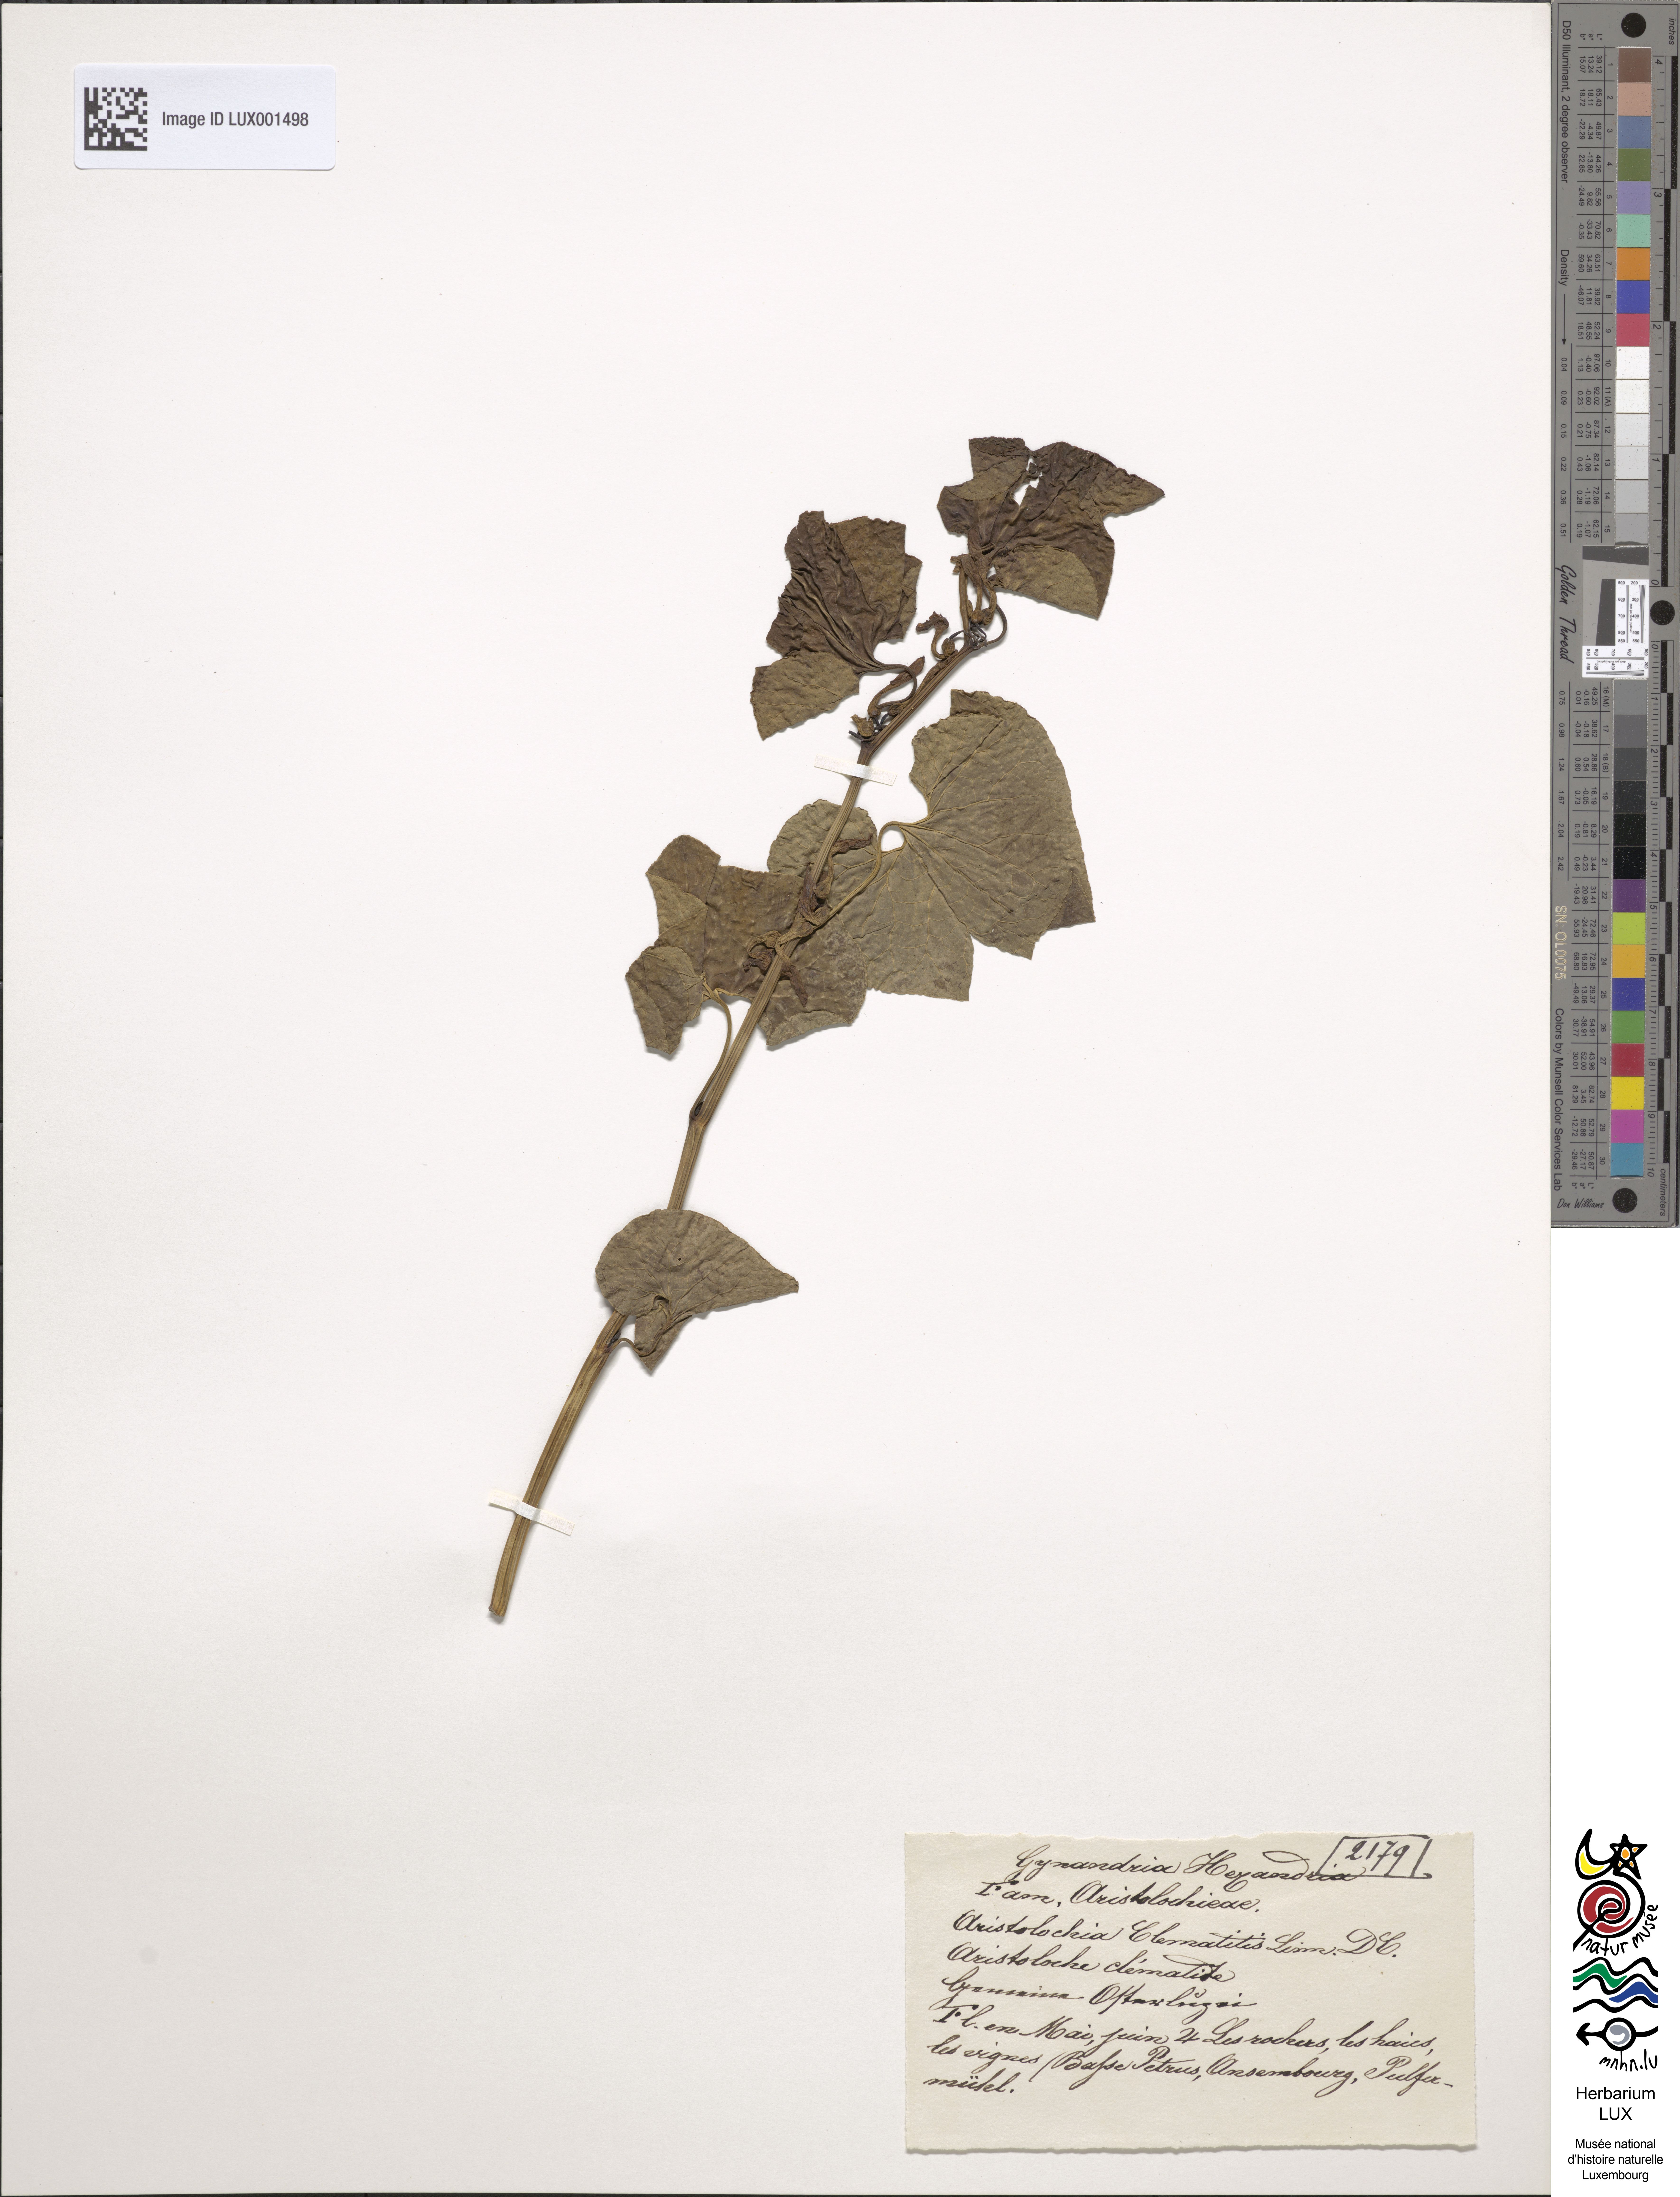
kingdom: Plantae
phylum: Tracheophyta
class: Magnoliopsida
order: Piperales
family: Aristolochiaceae
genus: Aristolochia
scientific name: Aristolochia clematitis
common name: Birthwort
